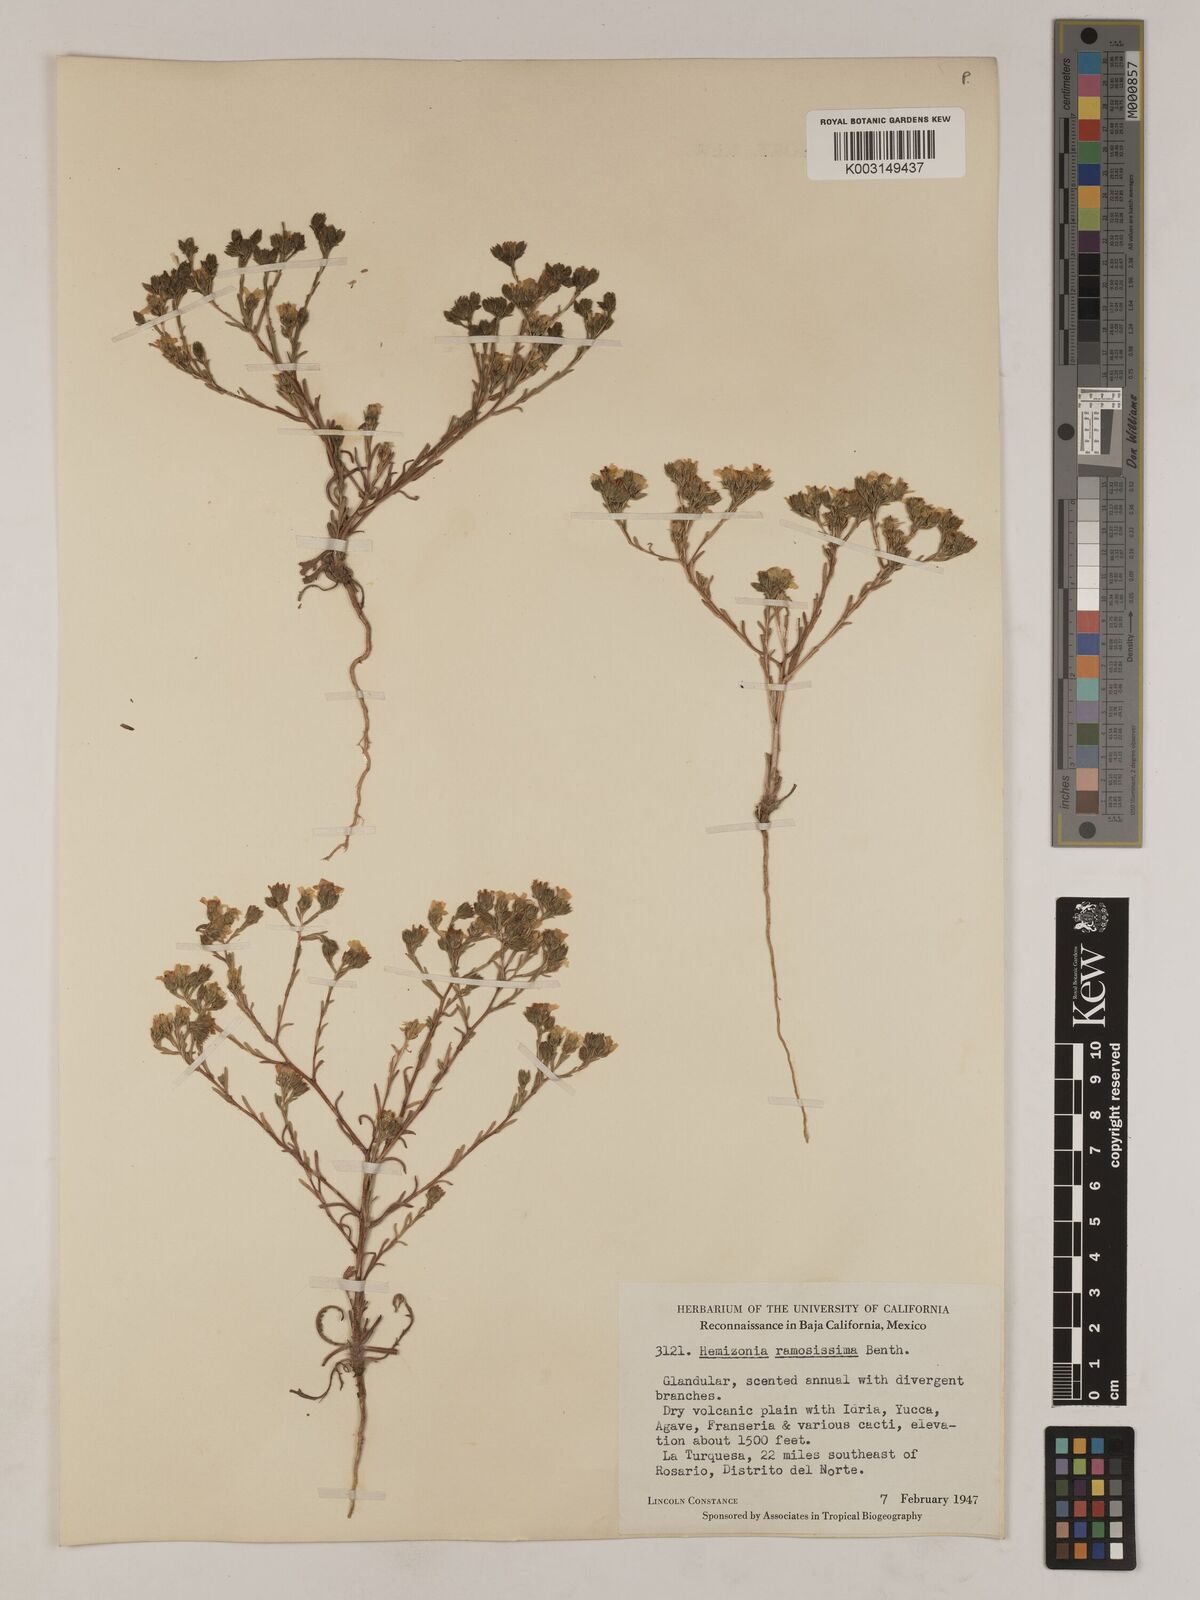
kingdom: Plantae
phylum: Tracheophyta
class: Magnoliopsida
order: Asterales
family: Asteraceae
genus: Deinandra
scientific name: Deinandra fasciculata
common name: Clustered tarweed
